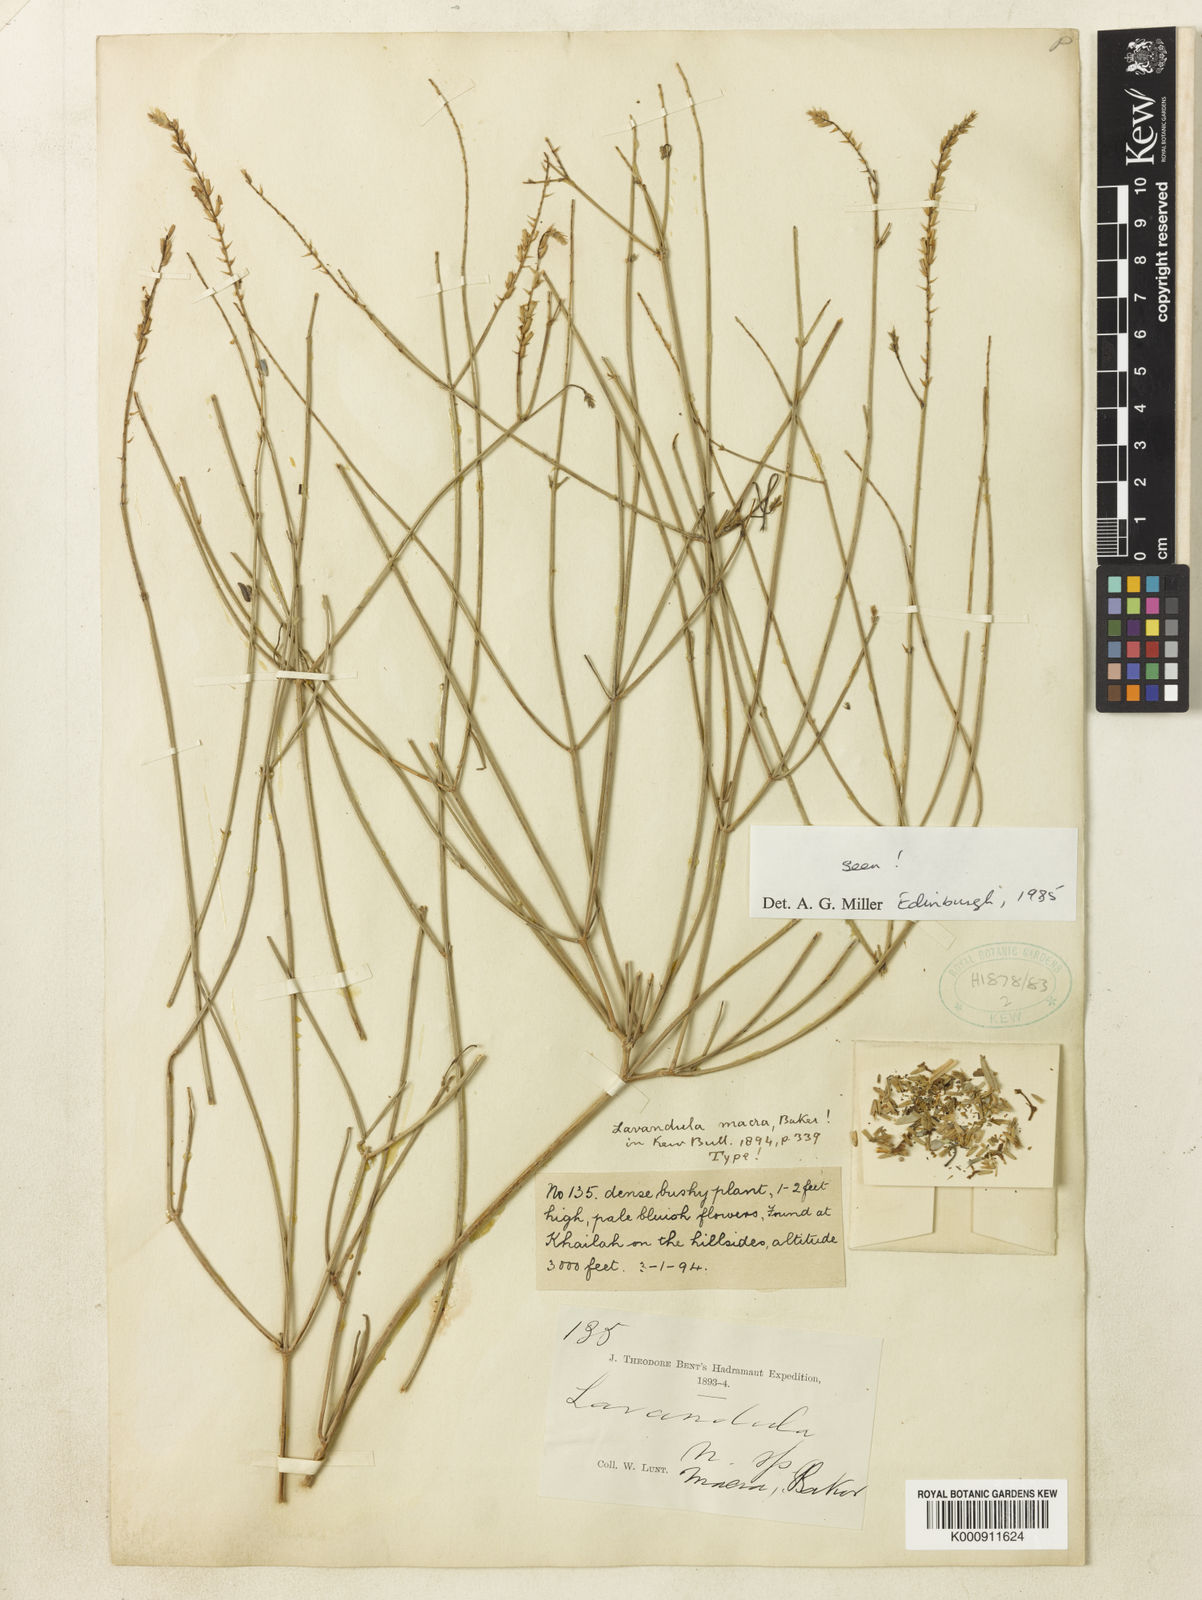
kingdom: Plantae
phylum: Tracheophyta
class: Magnoliopsida
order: Lamiales
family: Lamiaceae
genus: Lavandula
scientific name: Lavandula macra
